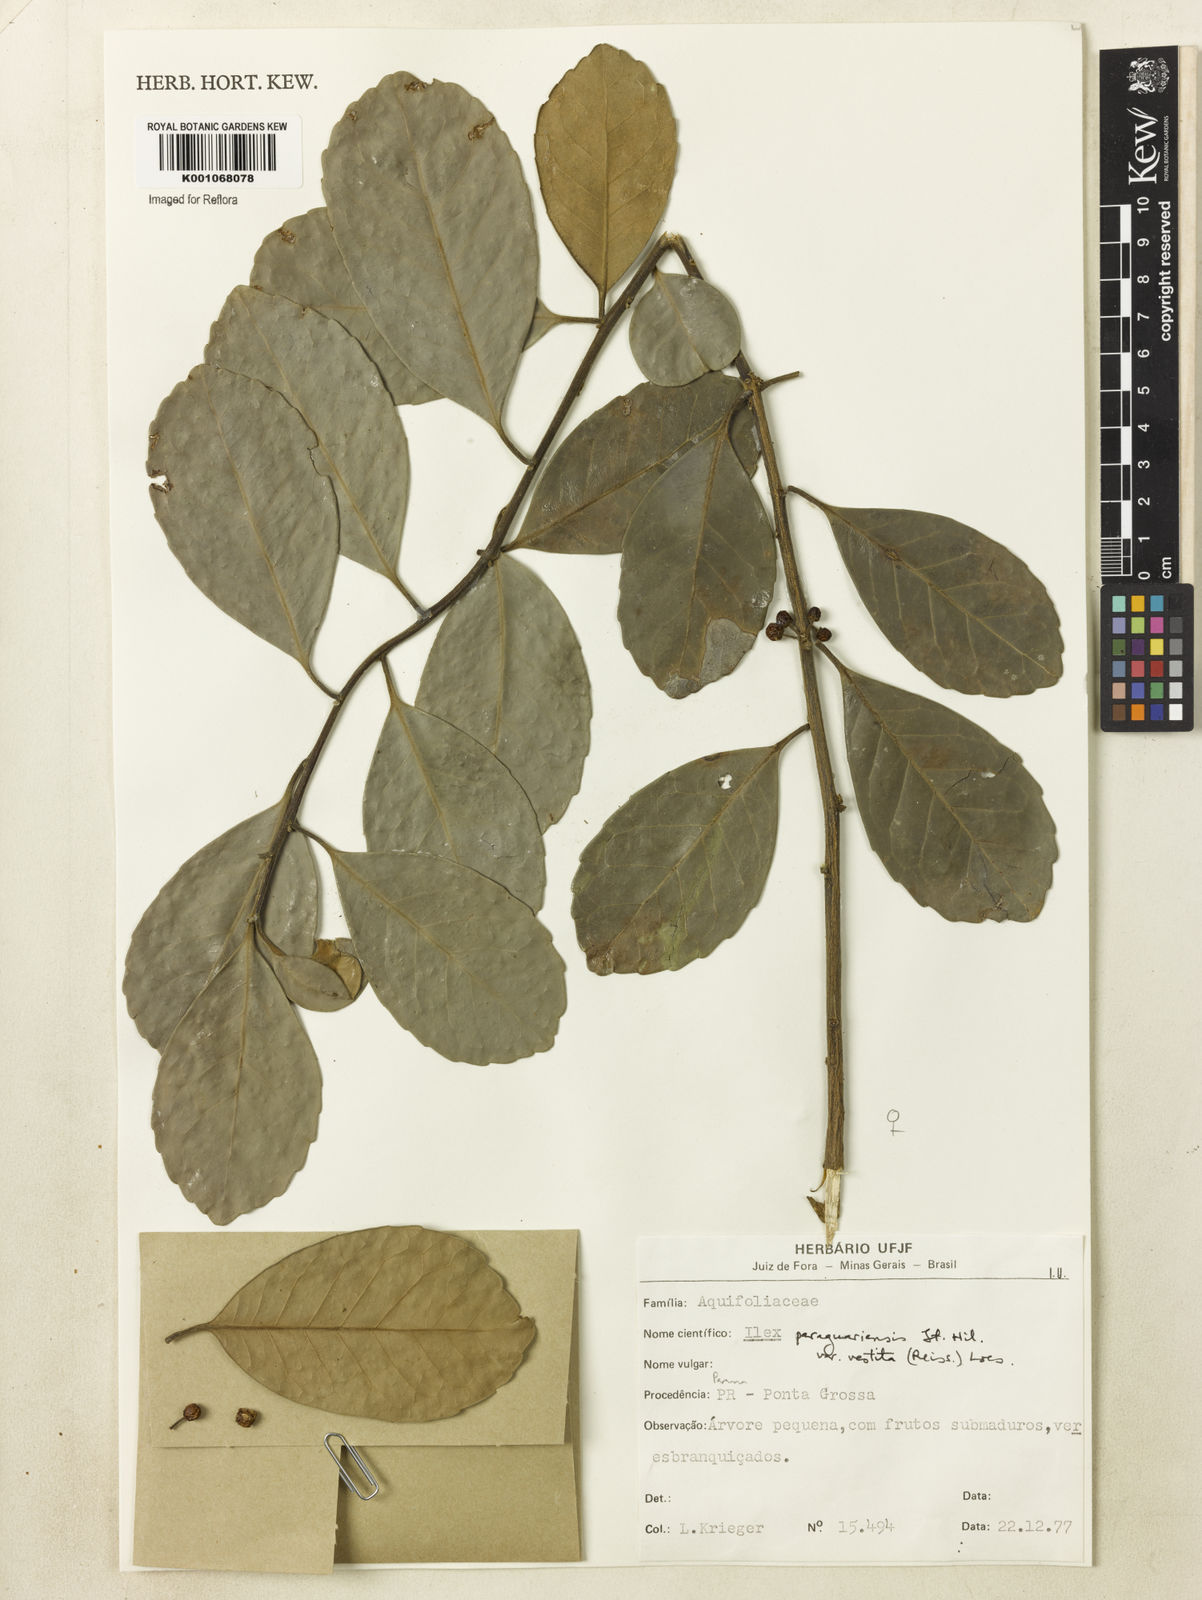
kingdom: Plantae
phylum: Tracheophyta
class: Magnoliopsida
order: Aquifoliales
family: Aquifoliaceae
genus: Ilex
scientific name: Ilex paraguariensis
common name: Paraguay tea
